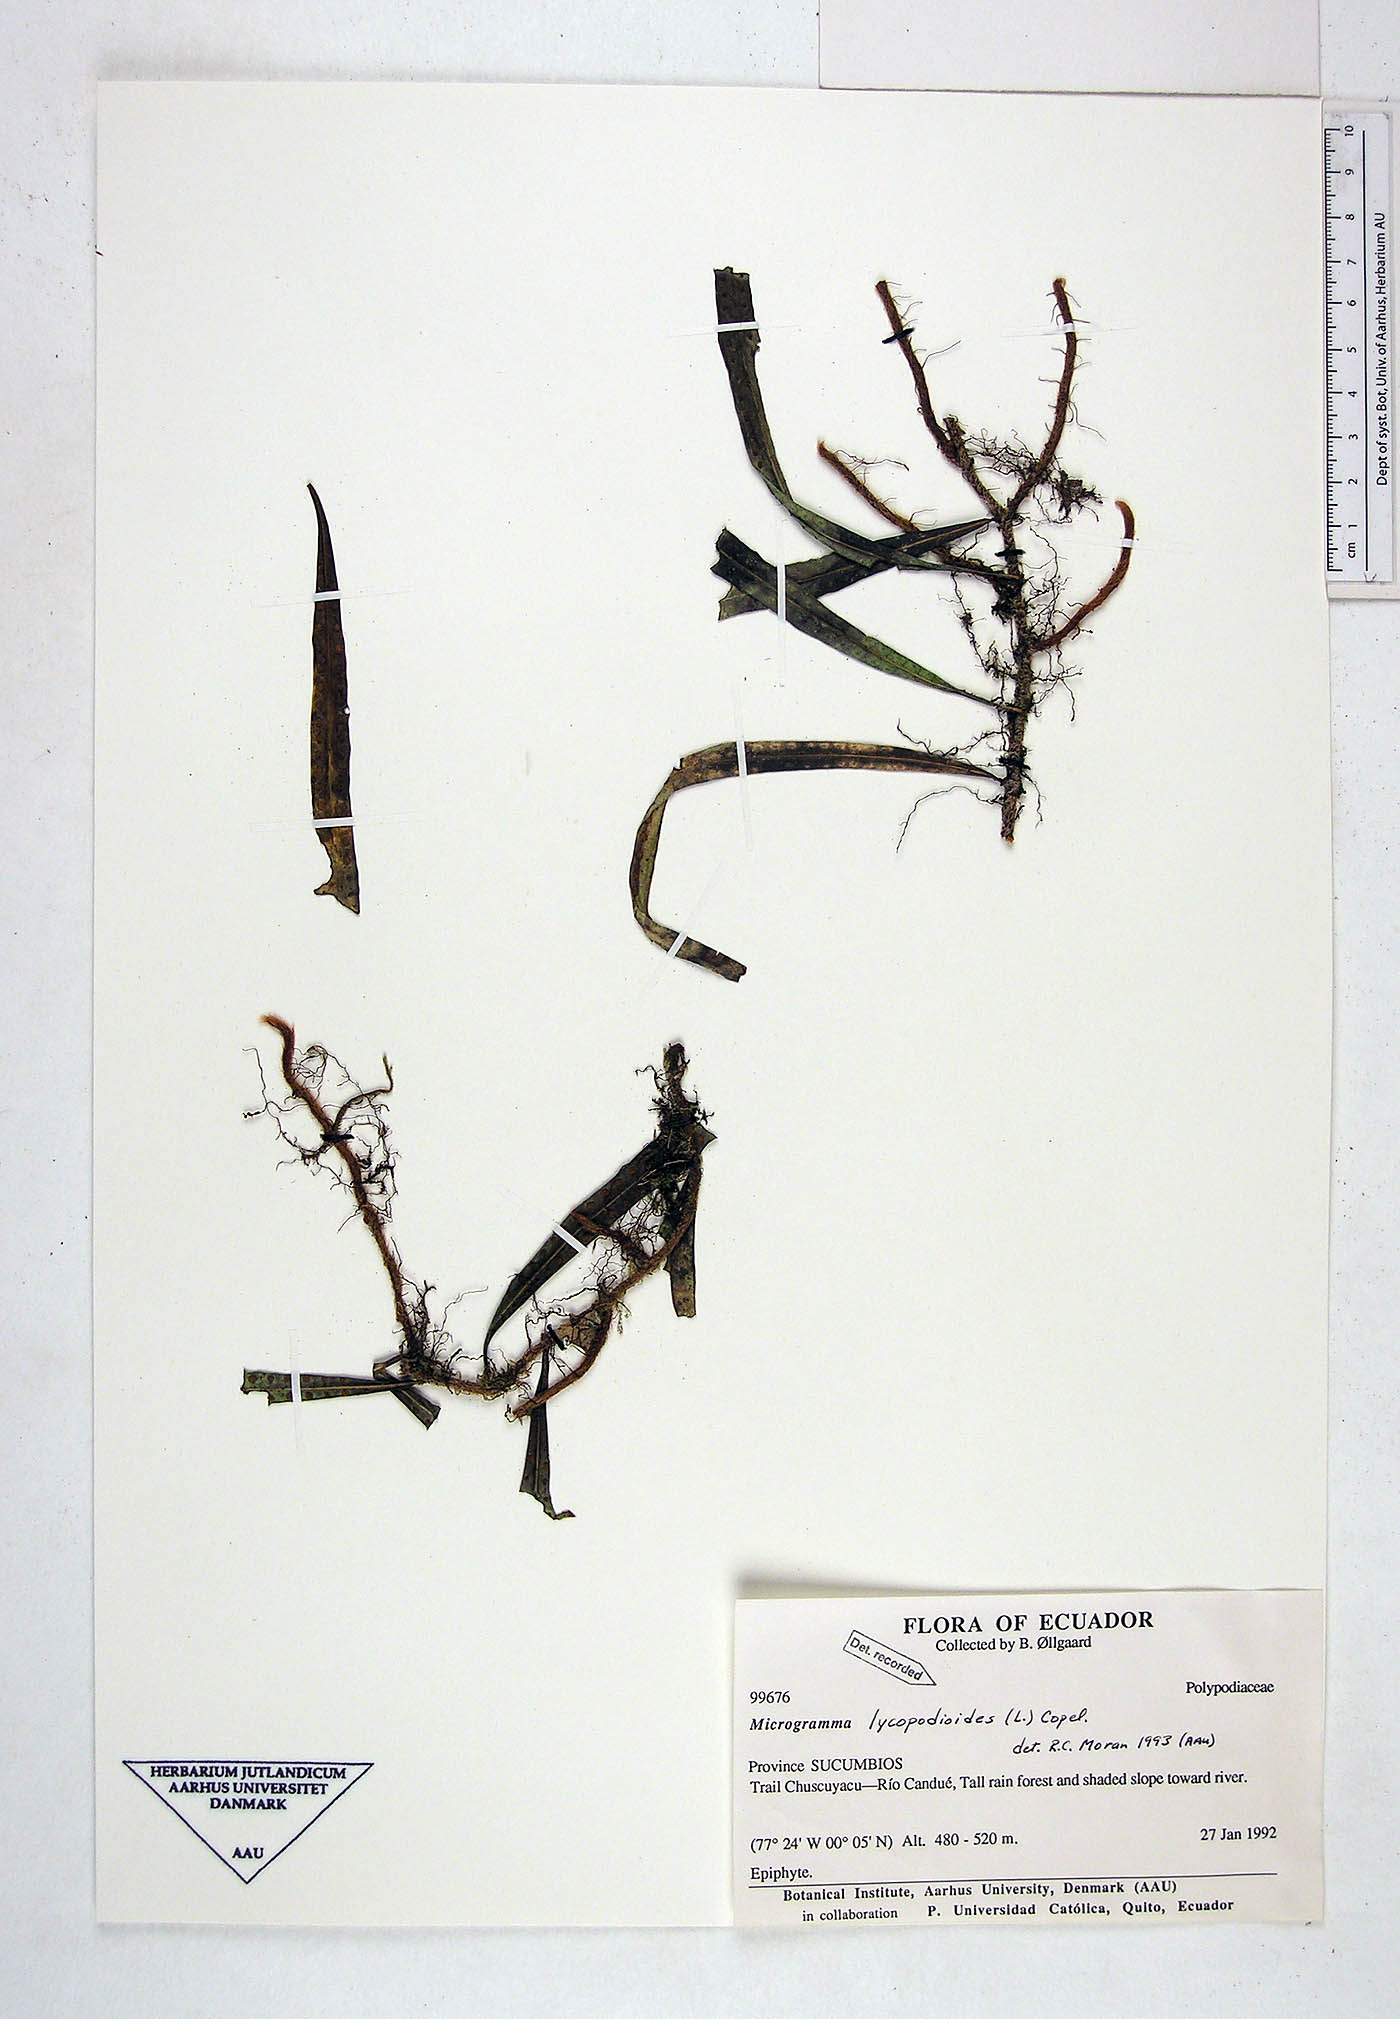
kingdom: Plantae
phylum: Tracheophyta
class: Polypodiopsida
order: Polypodiales
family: Polypodiaceae
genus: Microgramma
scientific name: Microgramma lycopodioides
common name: Bastard catclaw
